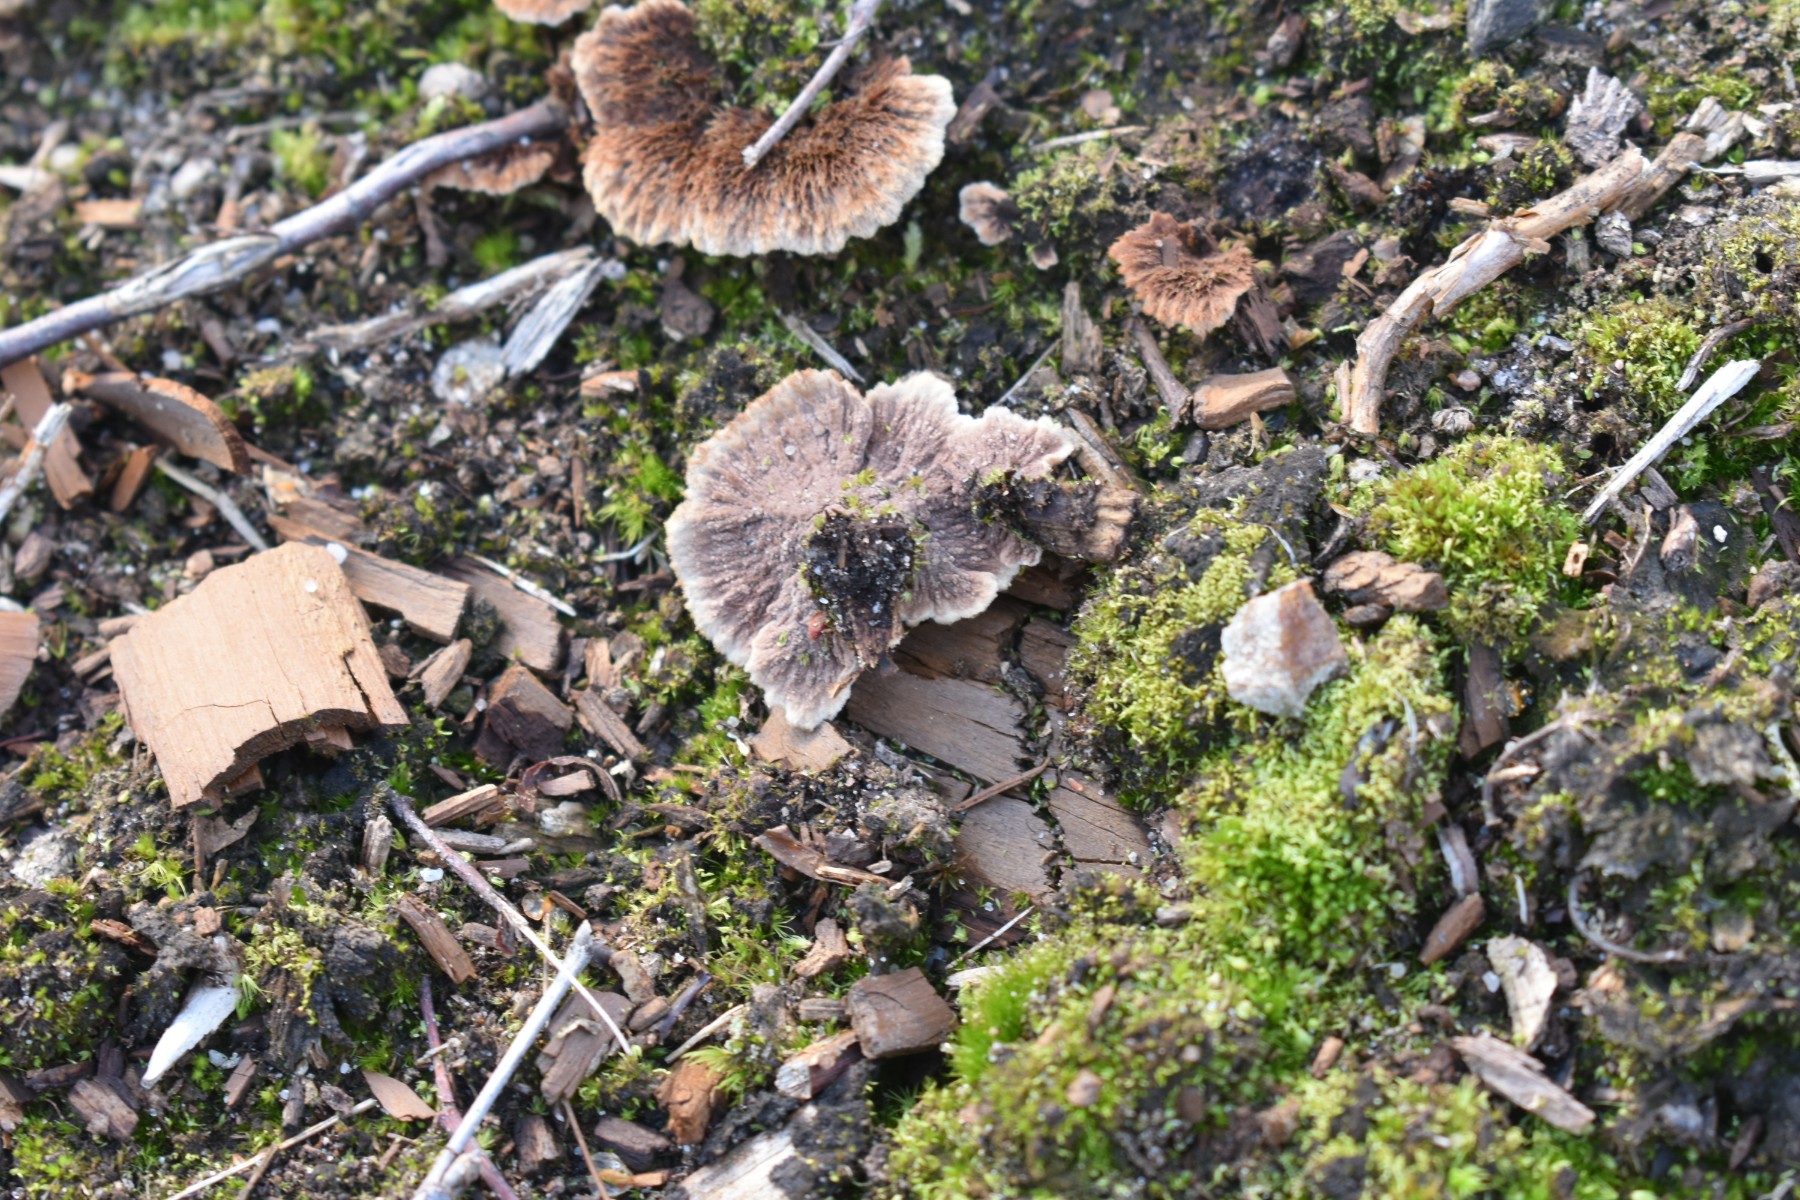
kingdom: Fungi
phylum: Basidiomycota
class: Agaricomycetes
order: Thelephorales
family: Thelephoraceae
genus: Thelephora
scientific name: Thelephora terrestris
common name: fliget frynsesvamp
